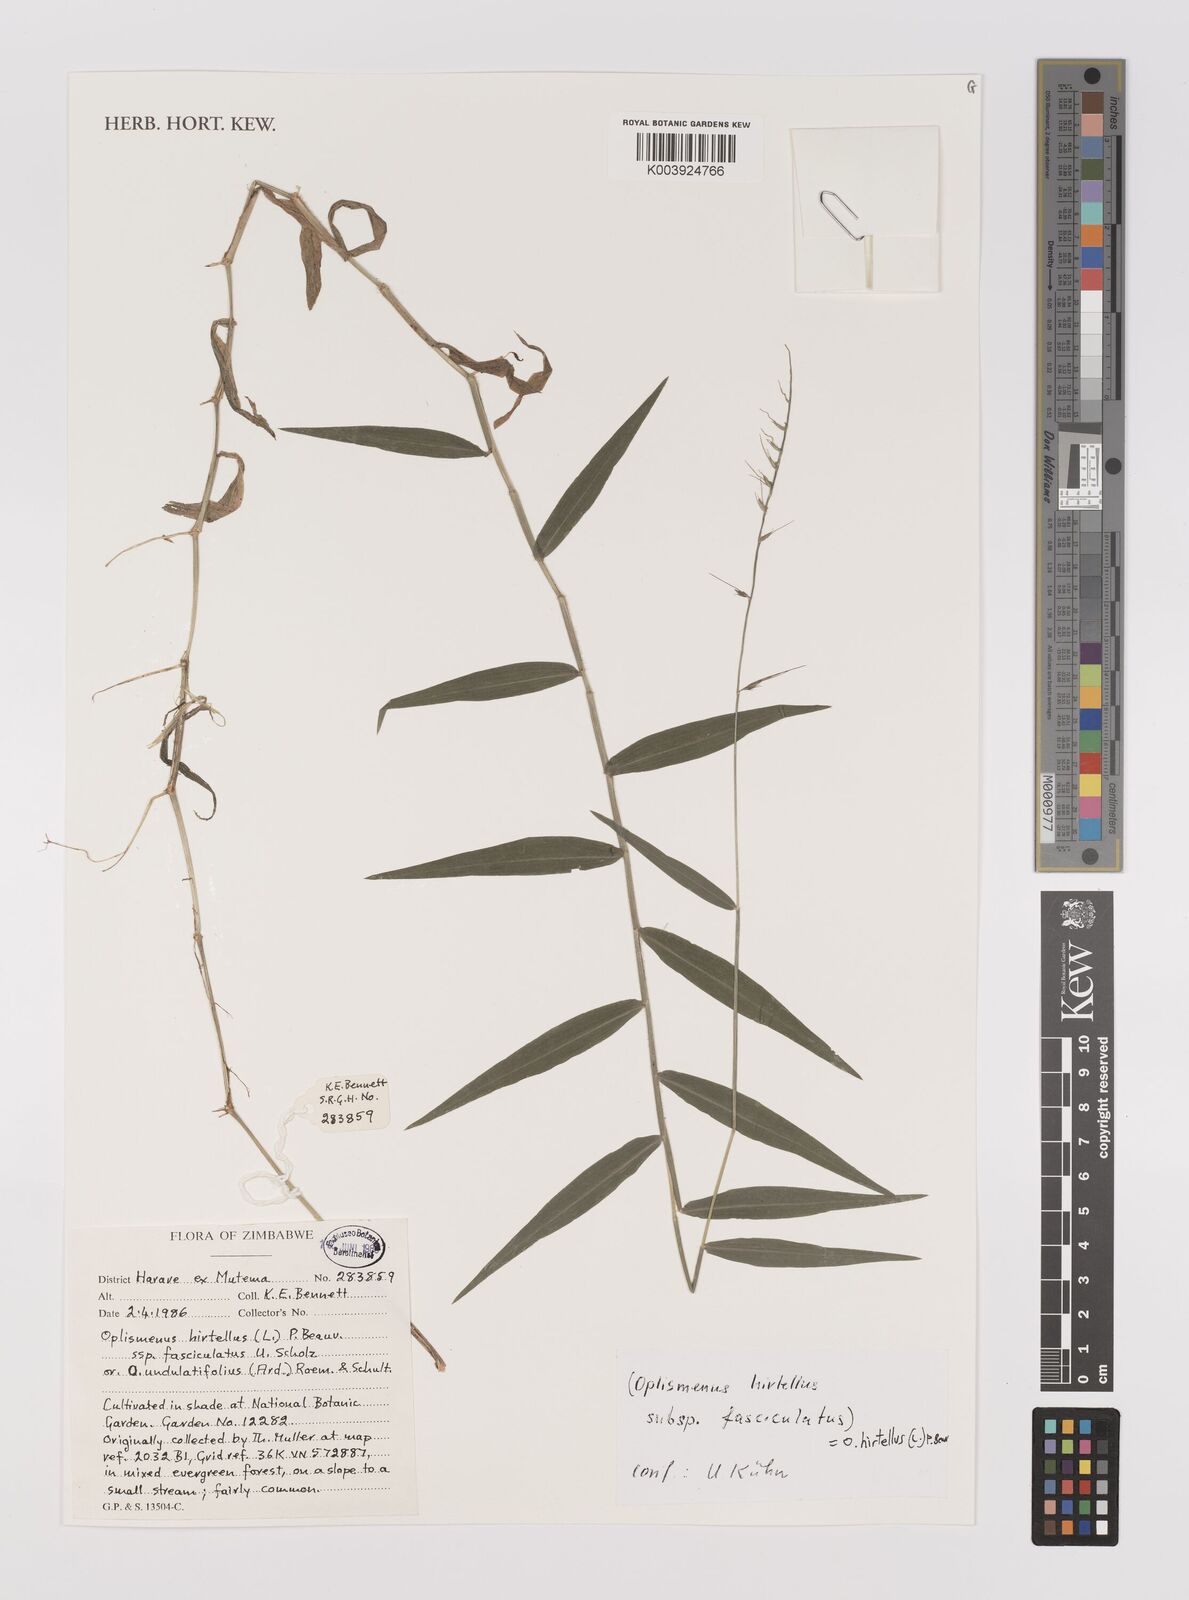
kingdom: Plantae
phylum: Tracheophyta
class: Liliopsida
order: Poales
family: Poaceae
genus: Oplismenus
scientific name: Oplismenus hirtellus
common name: Basketgrass
